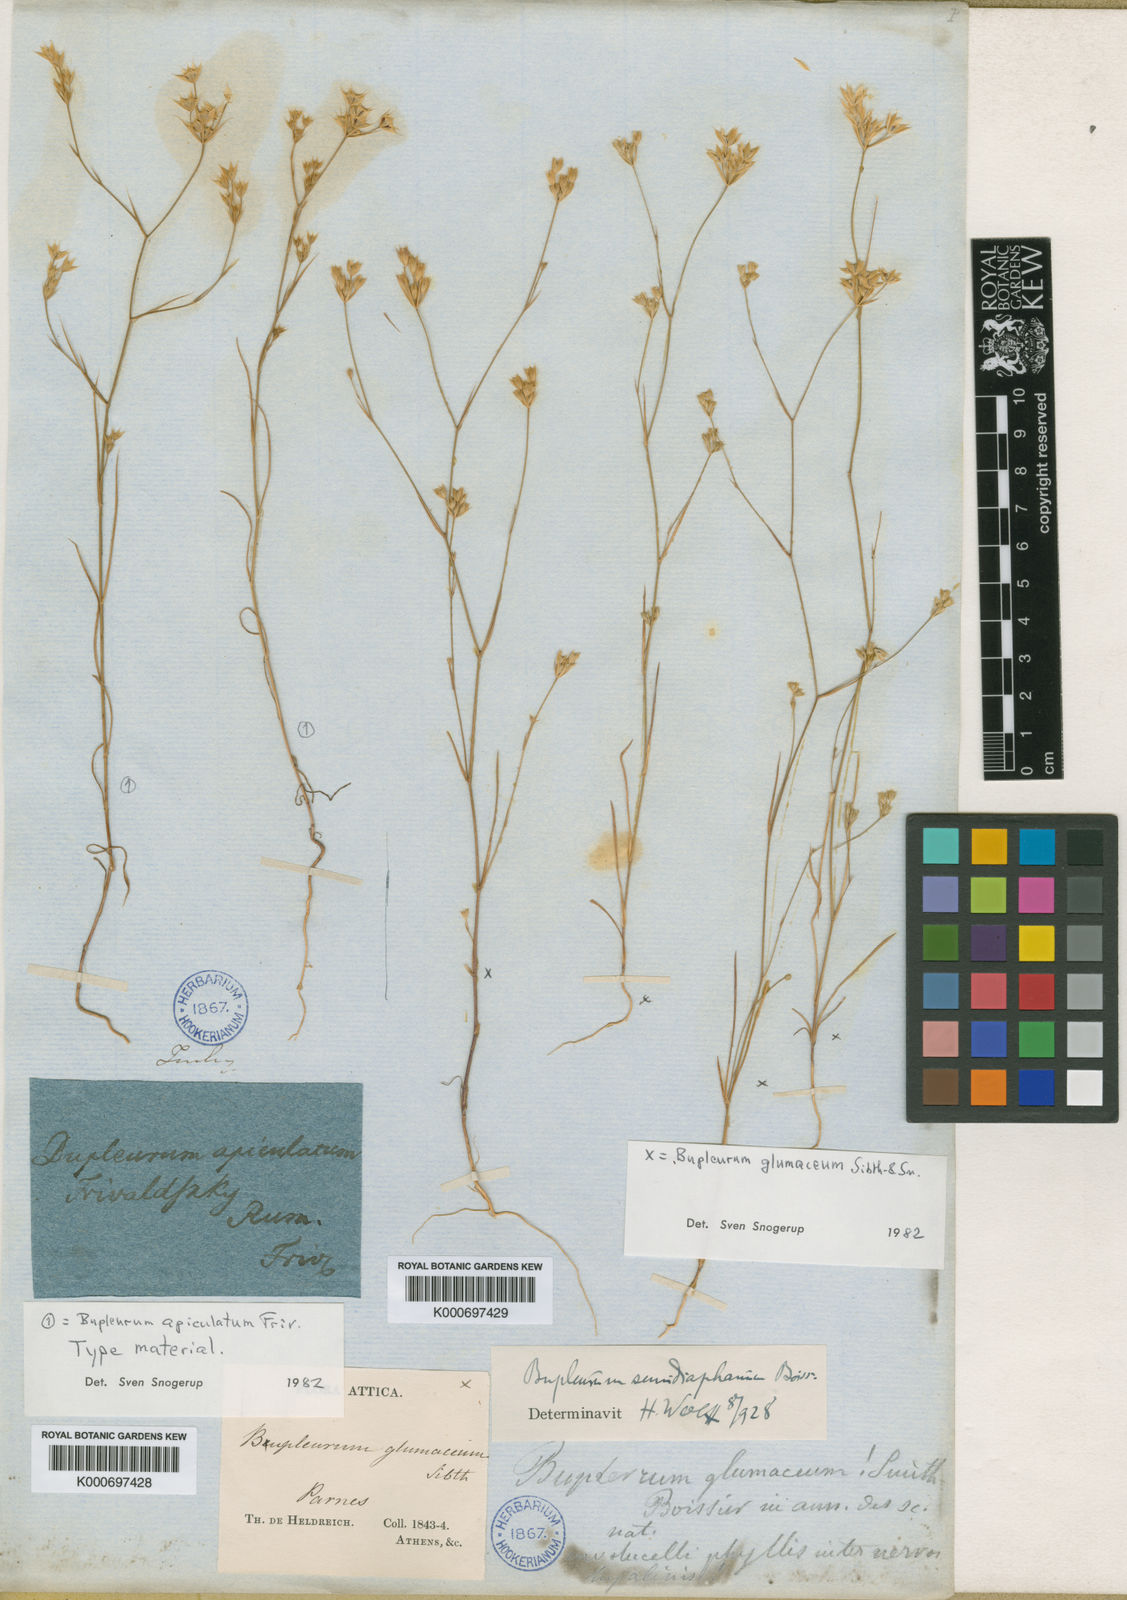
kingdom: Plantae
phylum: Tracheophyta
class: Magnoliopsida
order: Apiales
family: Apiaceae
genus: Bupleurum
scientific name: Bupleurum apiculatum
